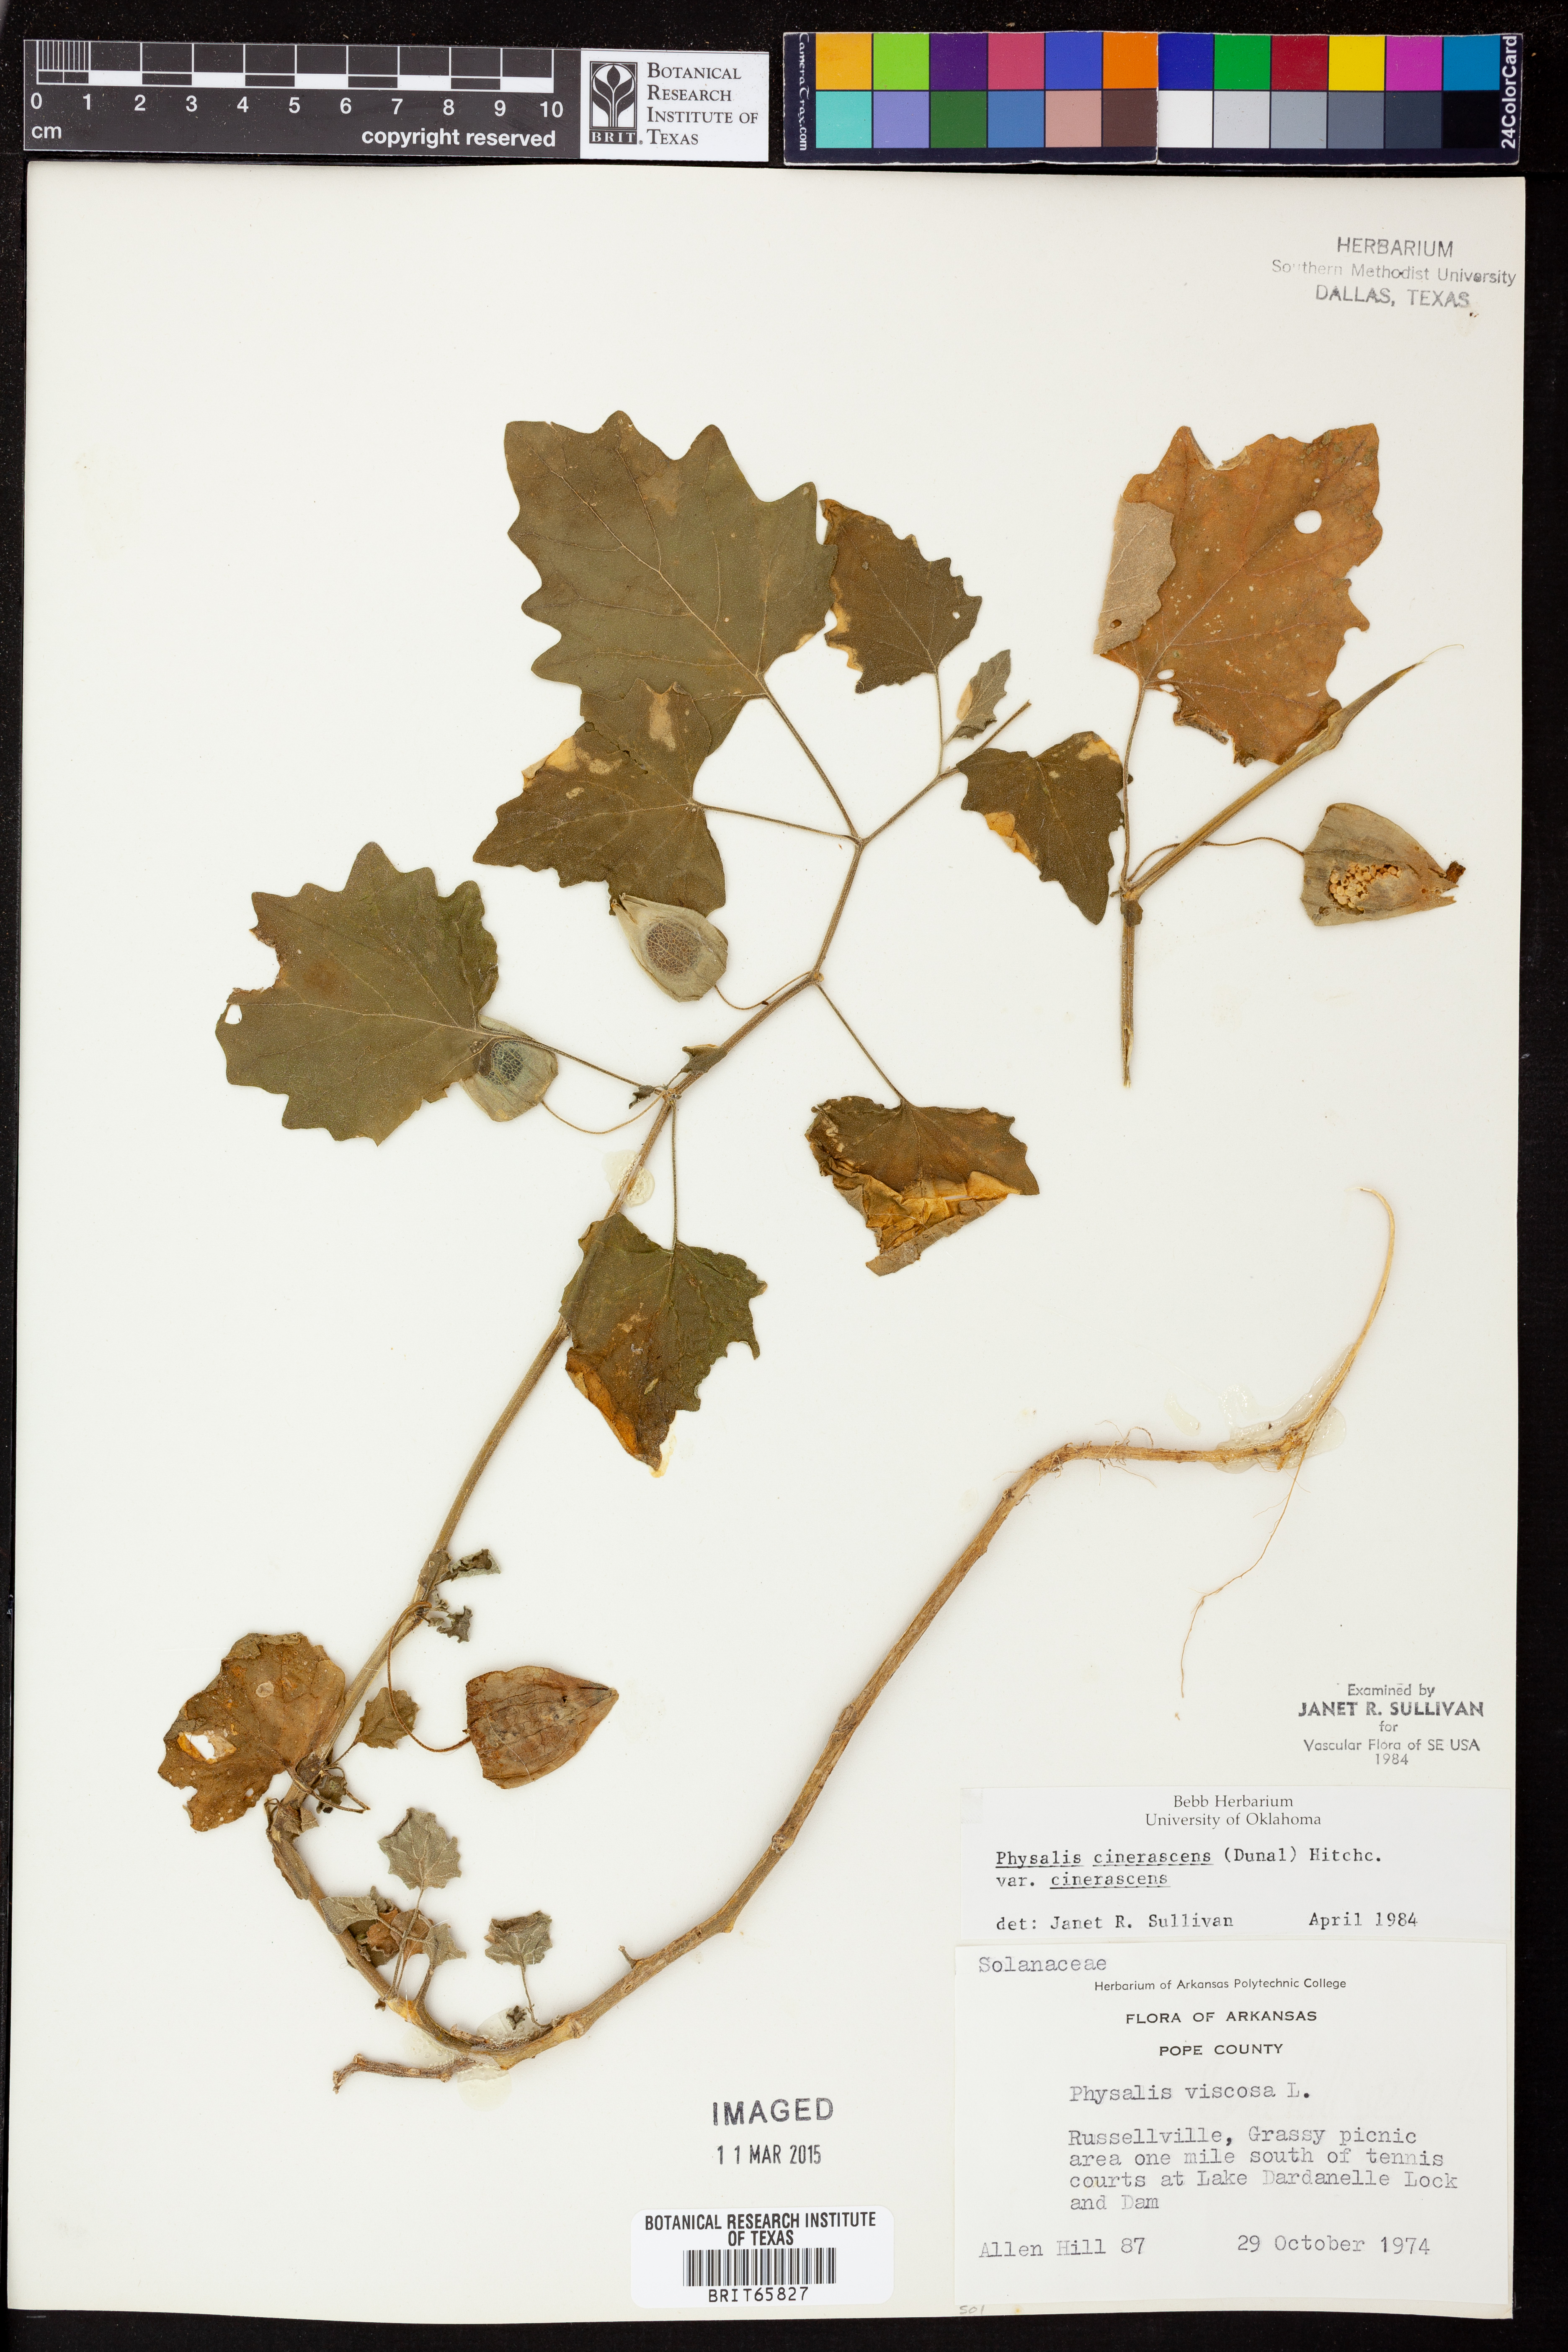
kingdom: Plantae
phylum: Tracheophyta
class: Magnoliopsida
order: Solanales
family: Solanaceae
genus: Physalis
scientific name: Physalis cinerascens
